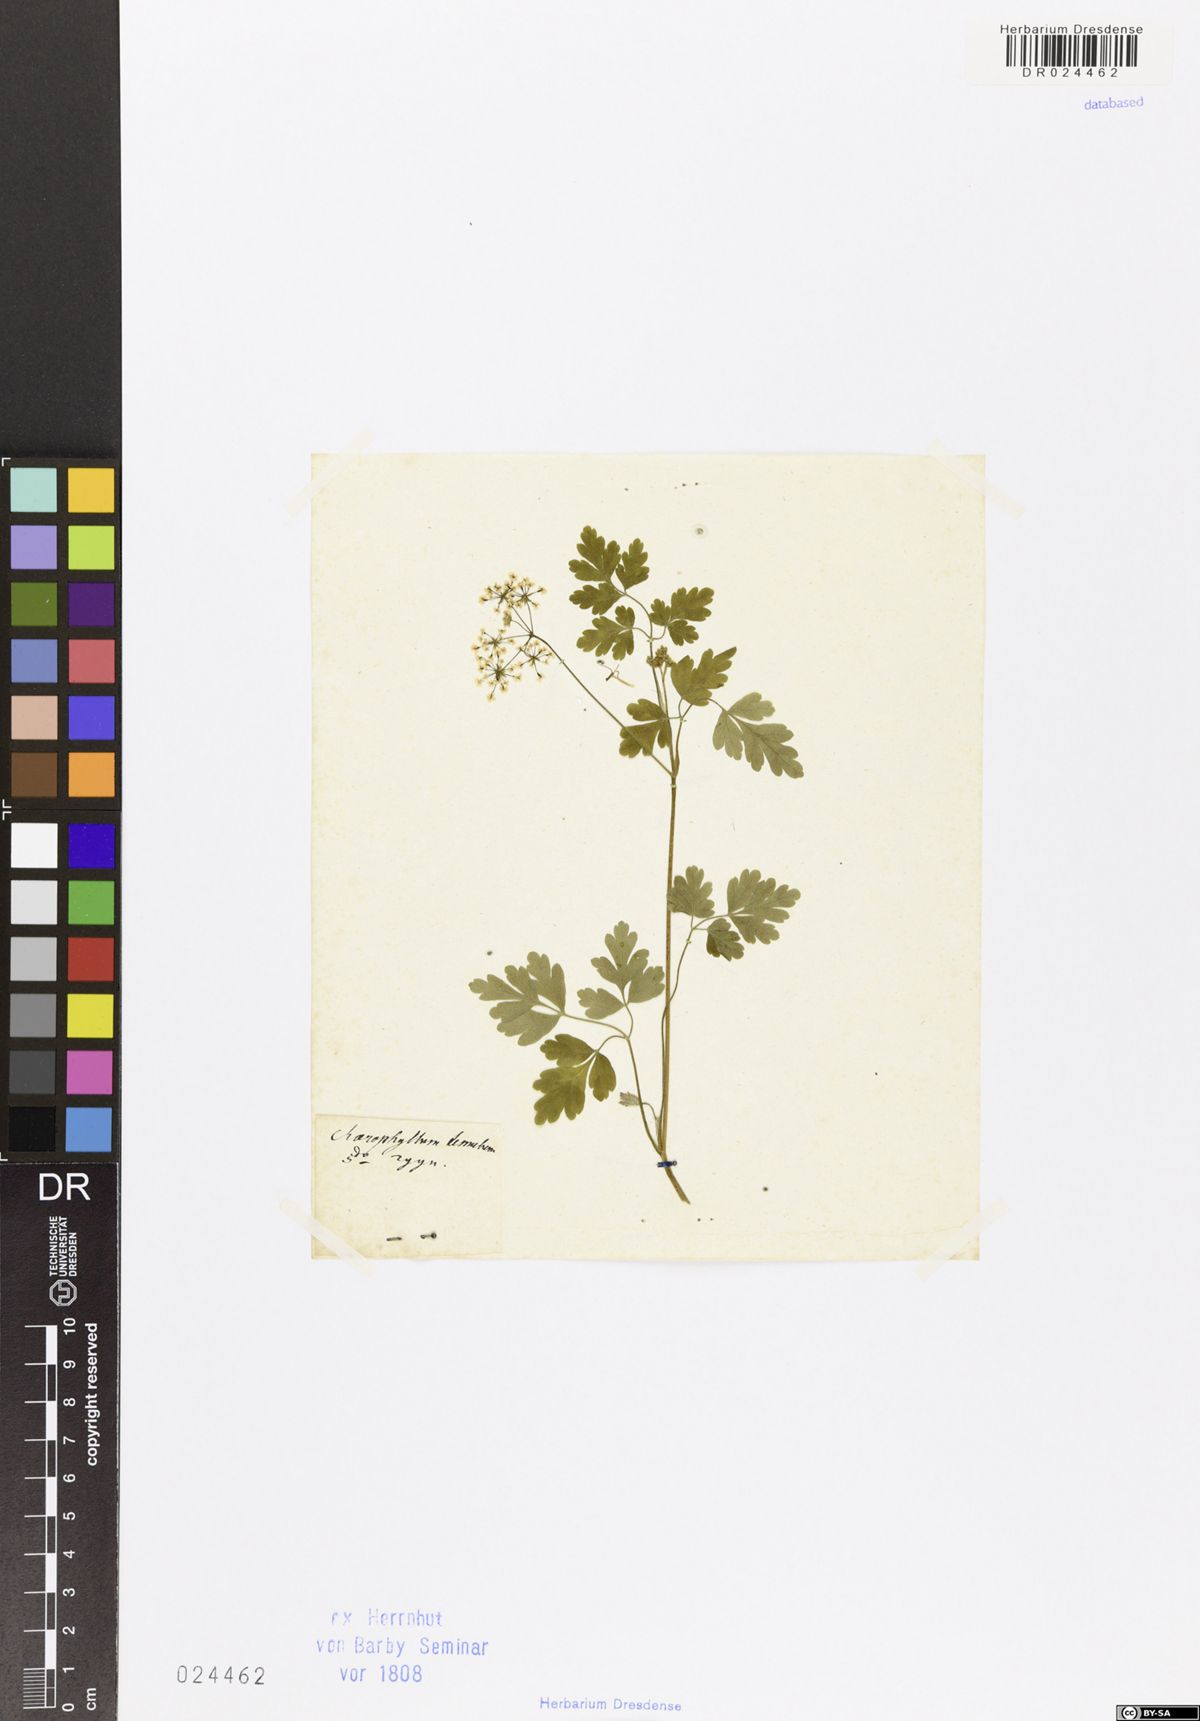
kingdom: Plantae
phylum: Tracheophyta
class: Magnoliopsida
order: Apiales
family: Apiaceae
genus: Chaerophyllum
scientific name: Chaerophyllum temulum
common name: Rough chervil
